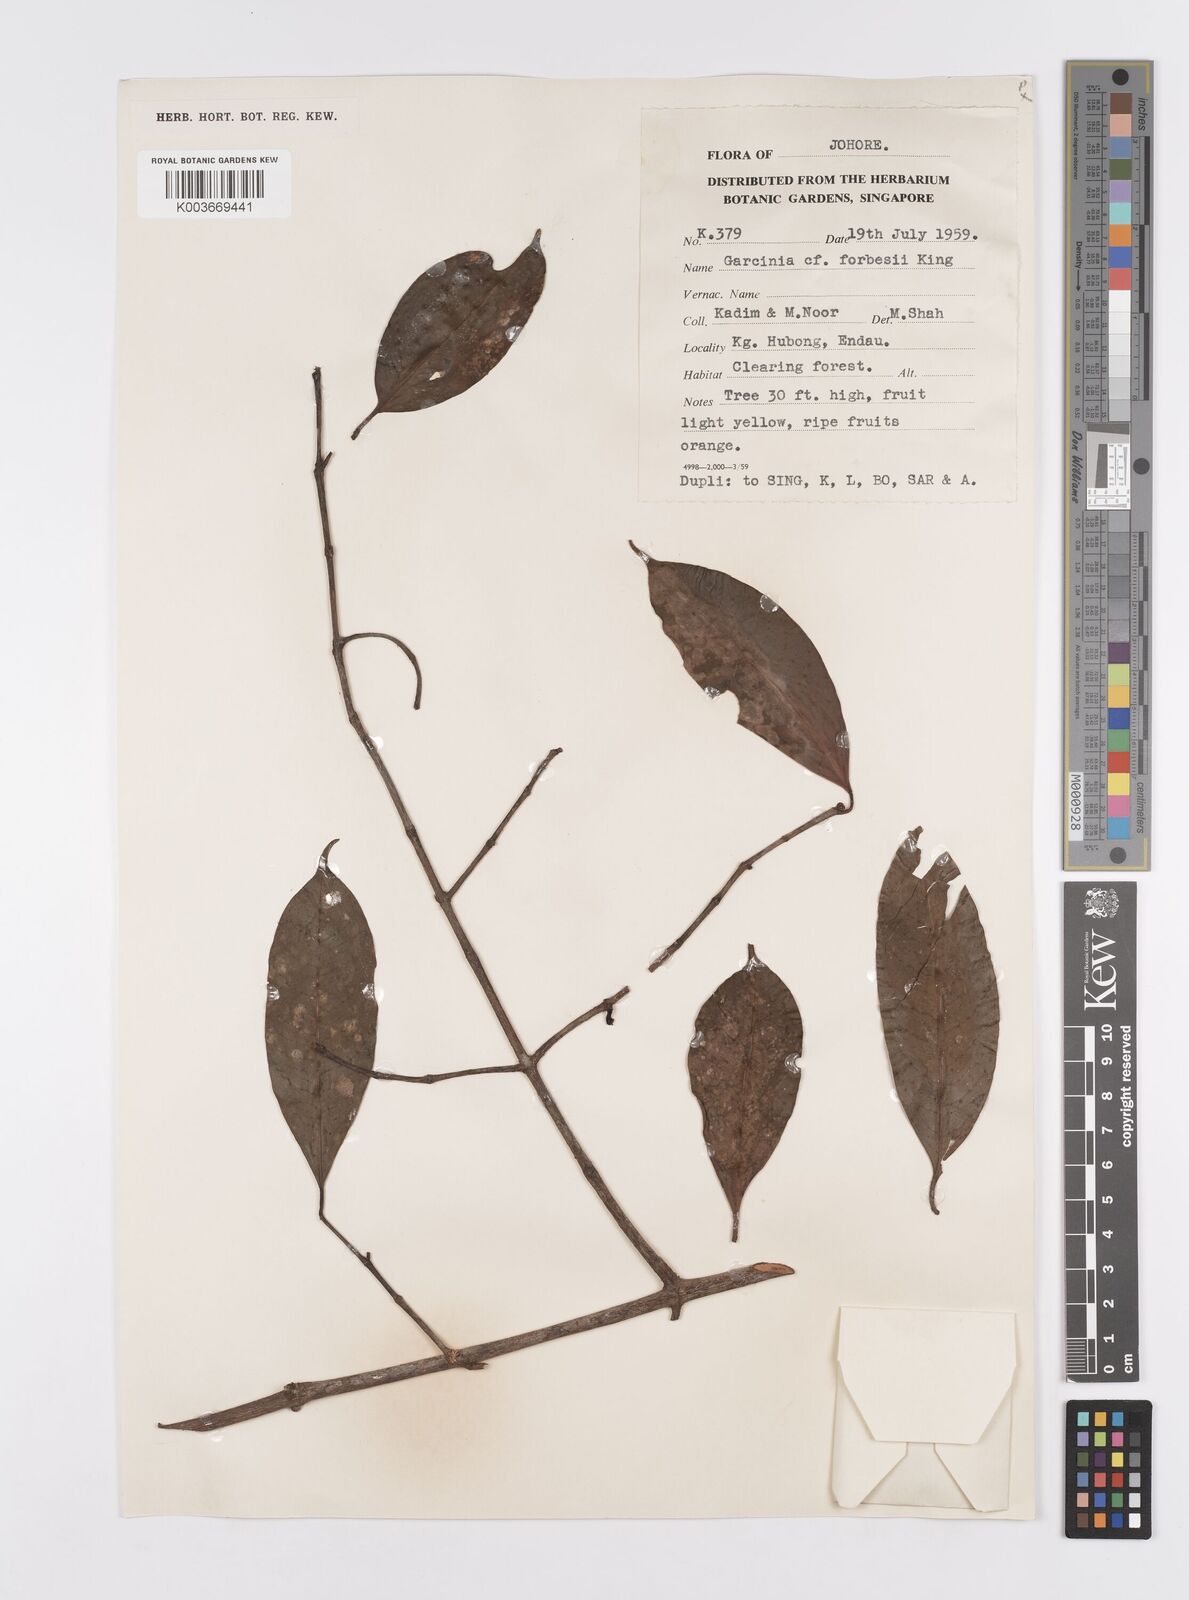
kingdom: Plantae
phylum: Tracheophyta
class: Magnoliopsida
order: Malpighiales
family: Clusiaceae
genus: Garcinia
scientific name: Garcinia forbesii
